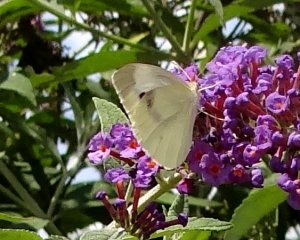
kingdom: Animalia
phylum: Arthropoda
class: Insecta
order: Lepidoptera
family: Pieridae
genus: Pieris
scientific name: Pieris rapae
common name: Cabbage White
